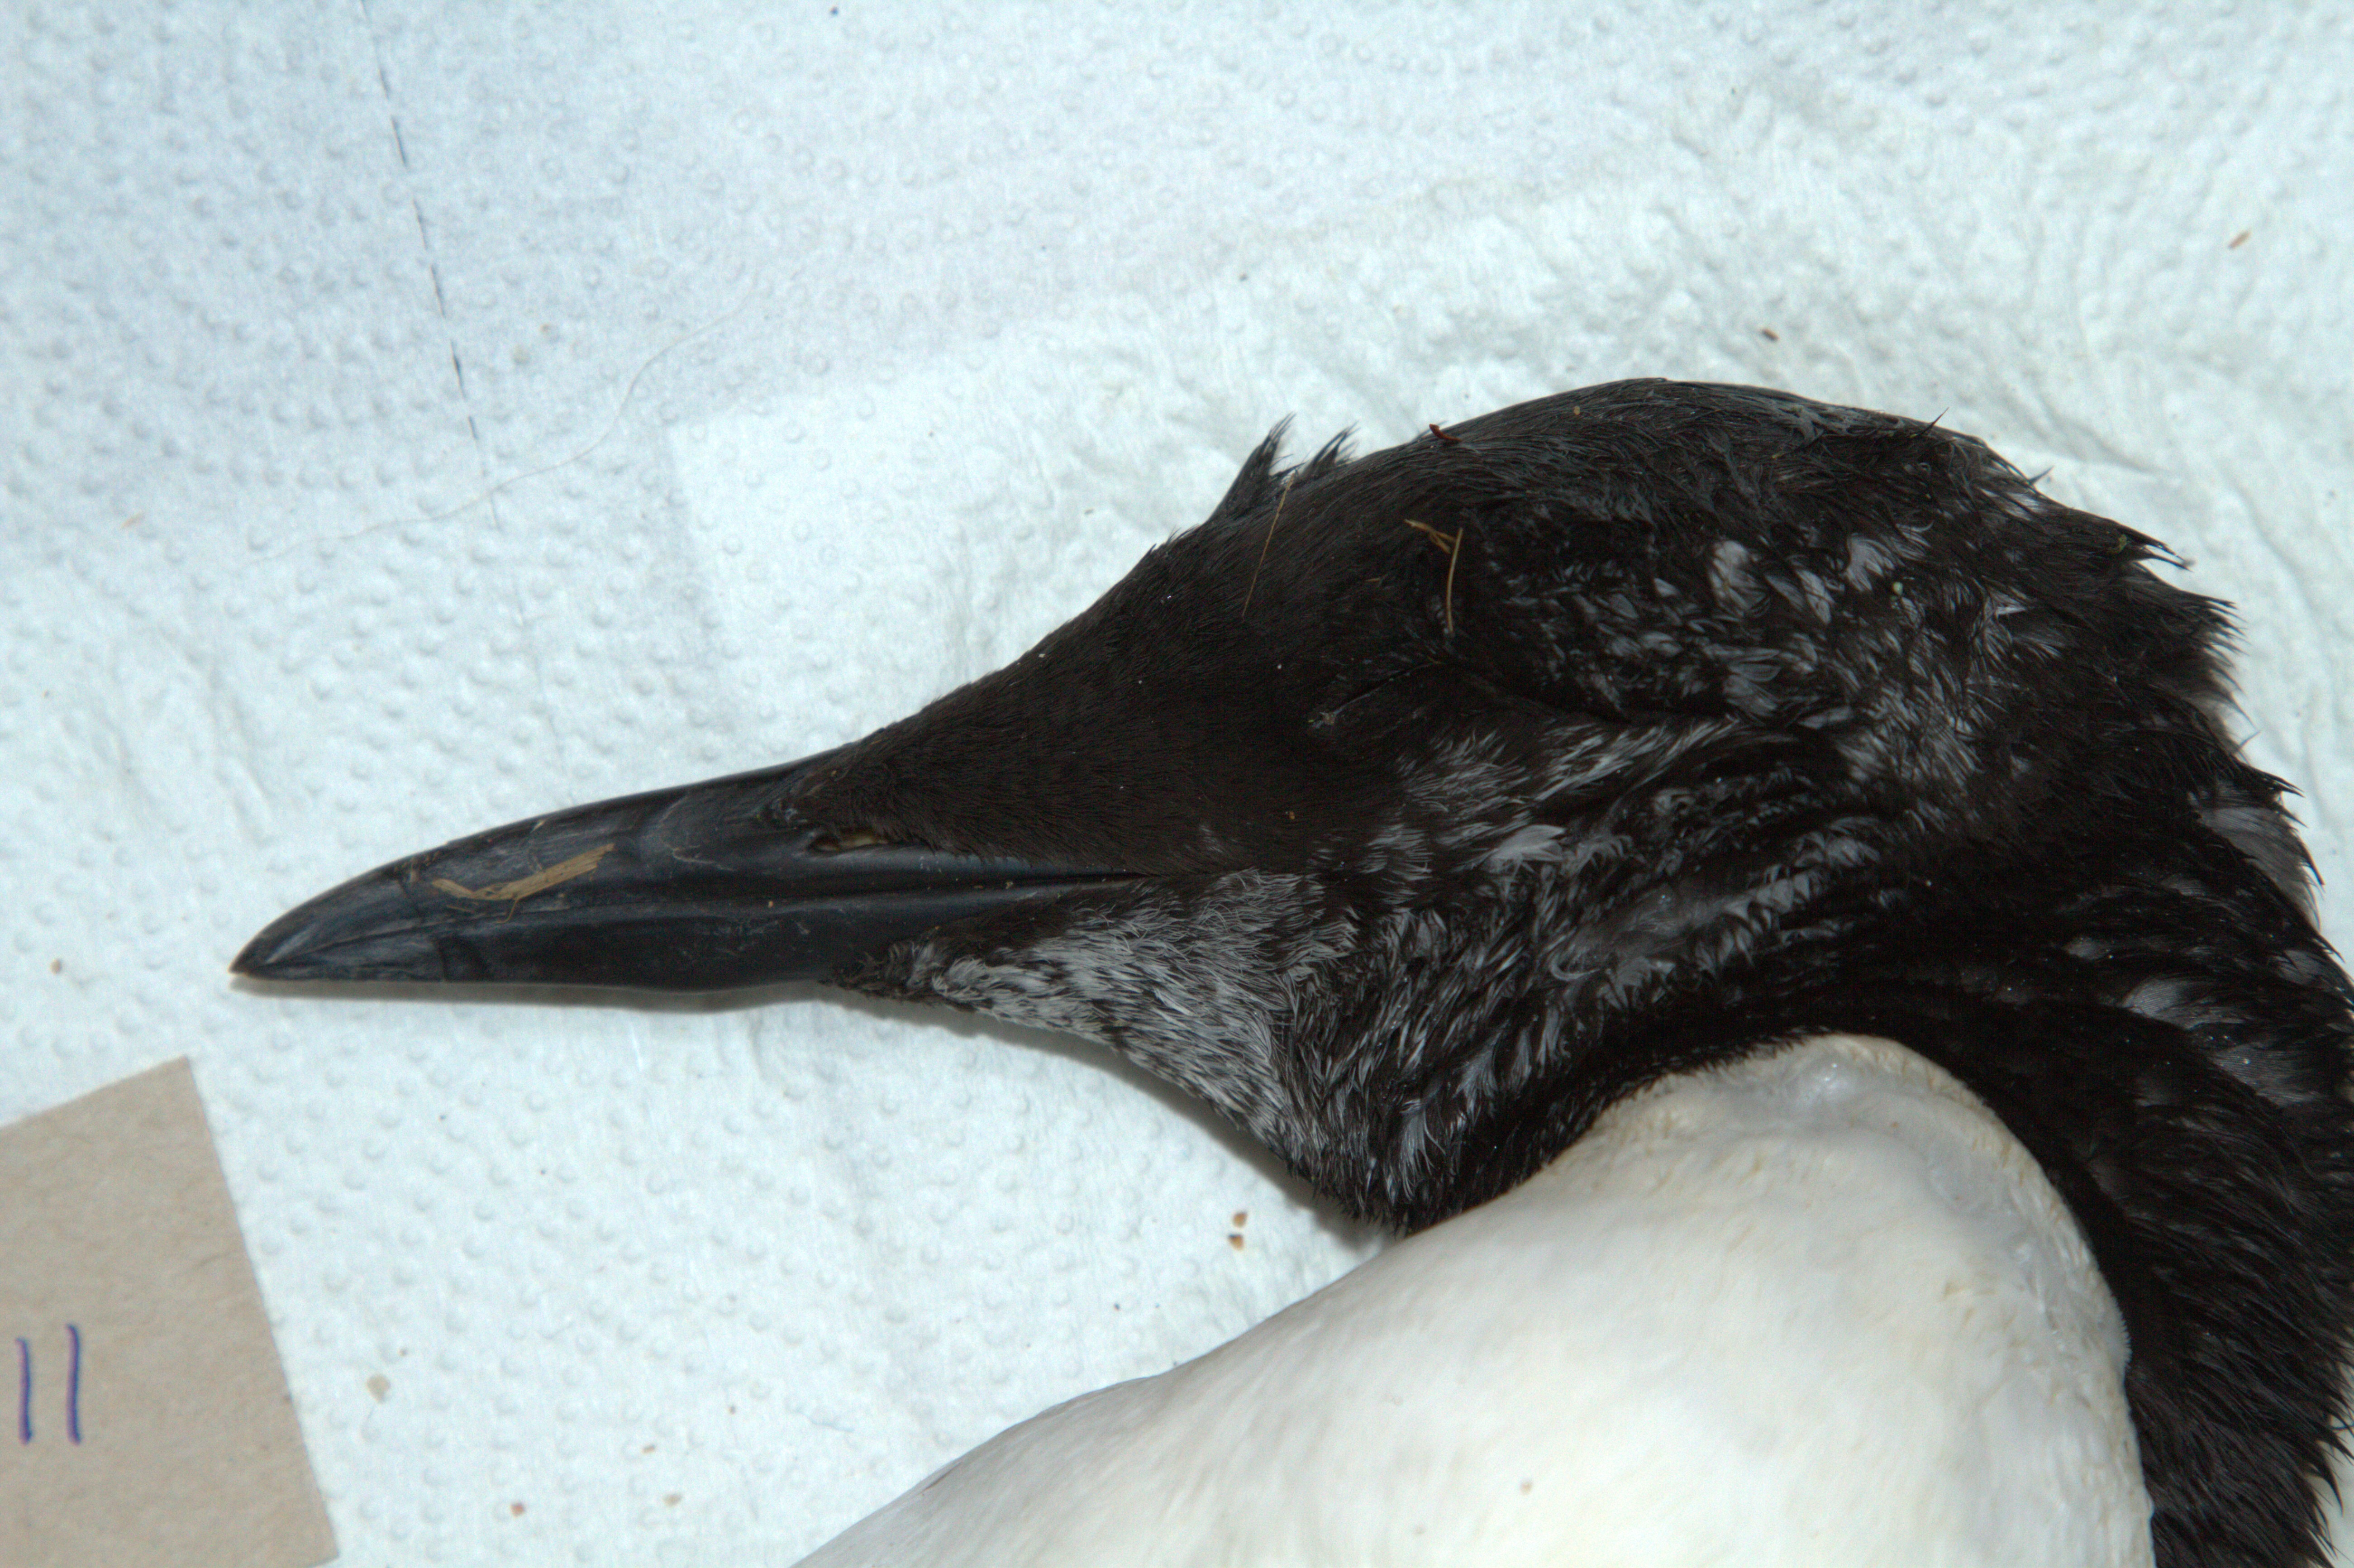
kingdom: Animalia
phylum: Chordata
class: Aves
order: Charadriiformes
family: Alcidae
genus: Uria
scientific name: Uria aalge
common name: Common murre
